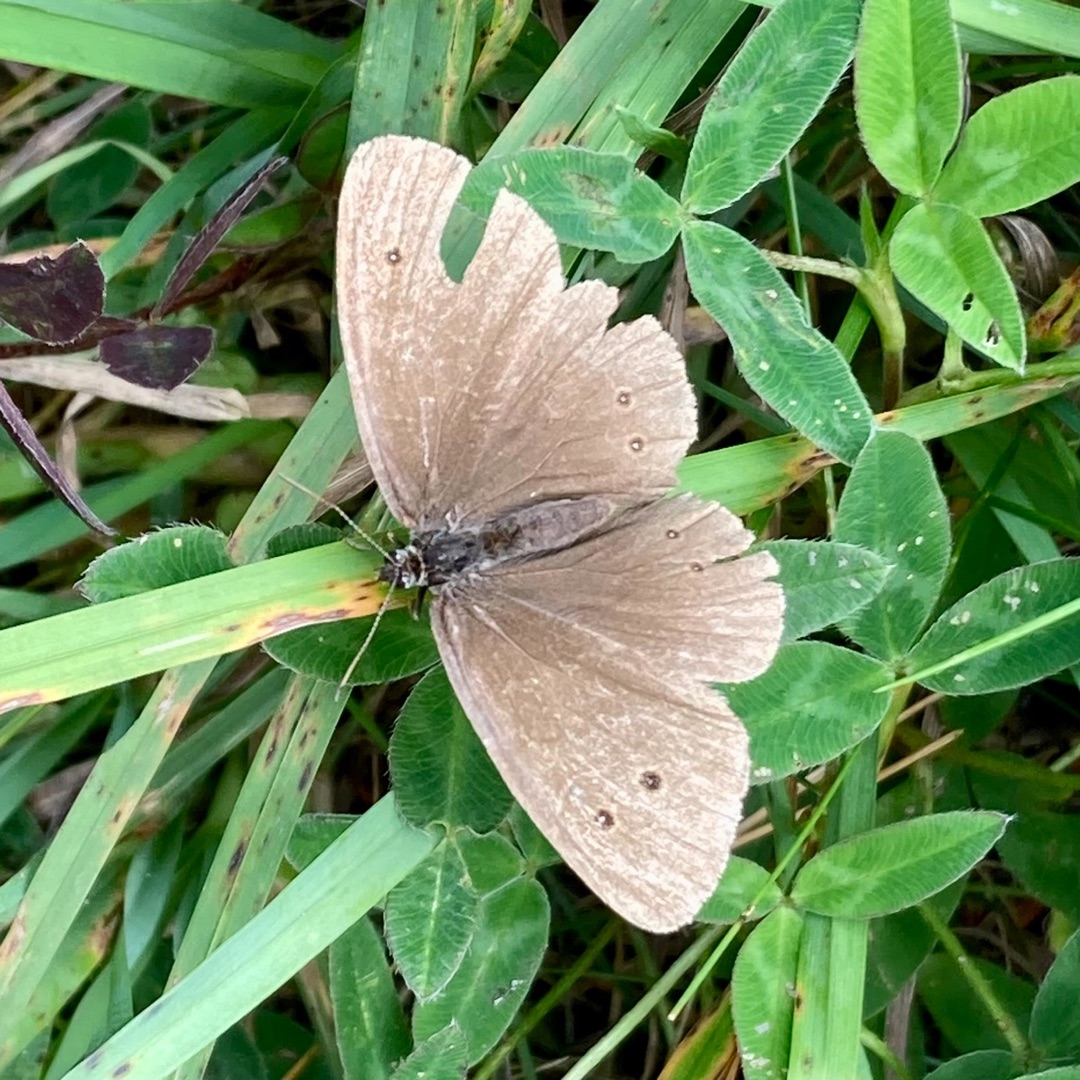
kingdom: Animalia
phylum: Arthropoda
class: Insecta
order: Lepidoptera
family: Nymphalidae
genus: Aphantopus
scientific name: Aphantopus hyperantus
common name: Engrandøje
